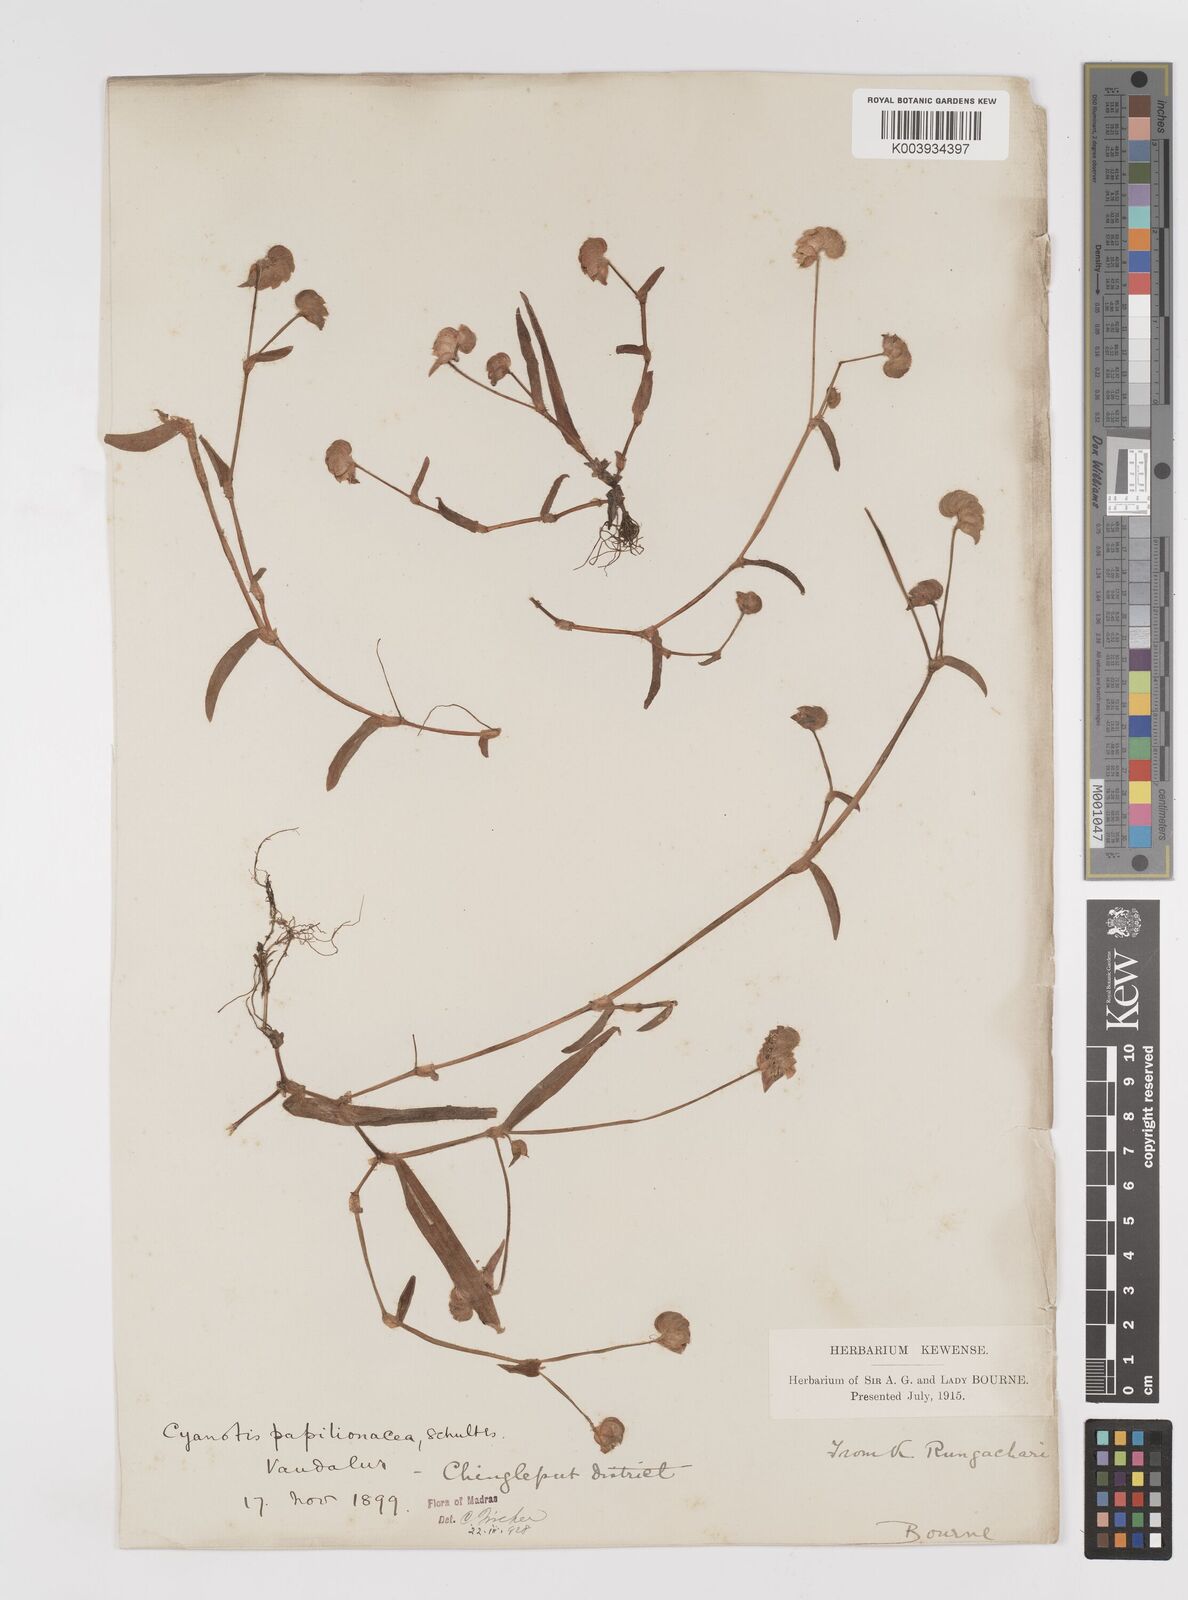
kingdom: Plantae
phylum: Tracheophyta
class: Liliopsida
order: Commelinales
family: Commelinaceae
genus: Cyanotis
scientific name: Cyanotis cristata
